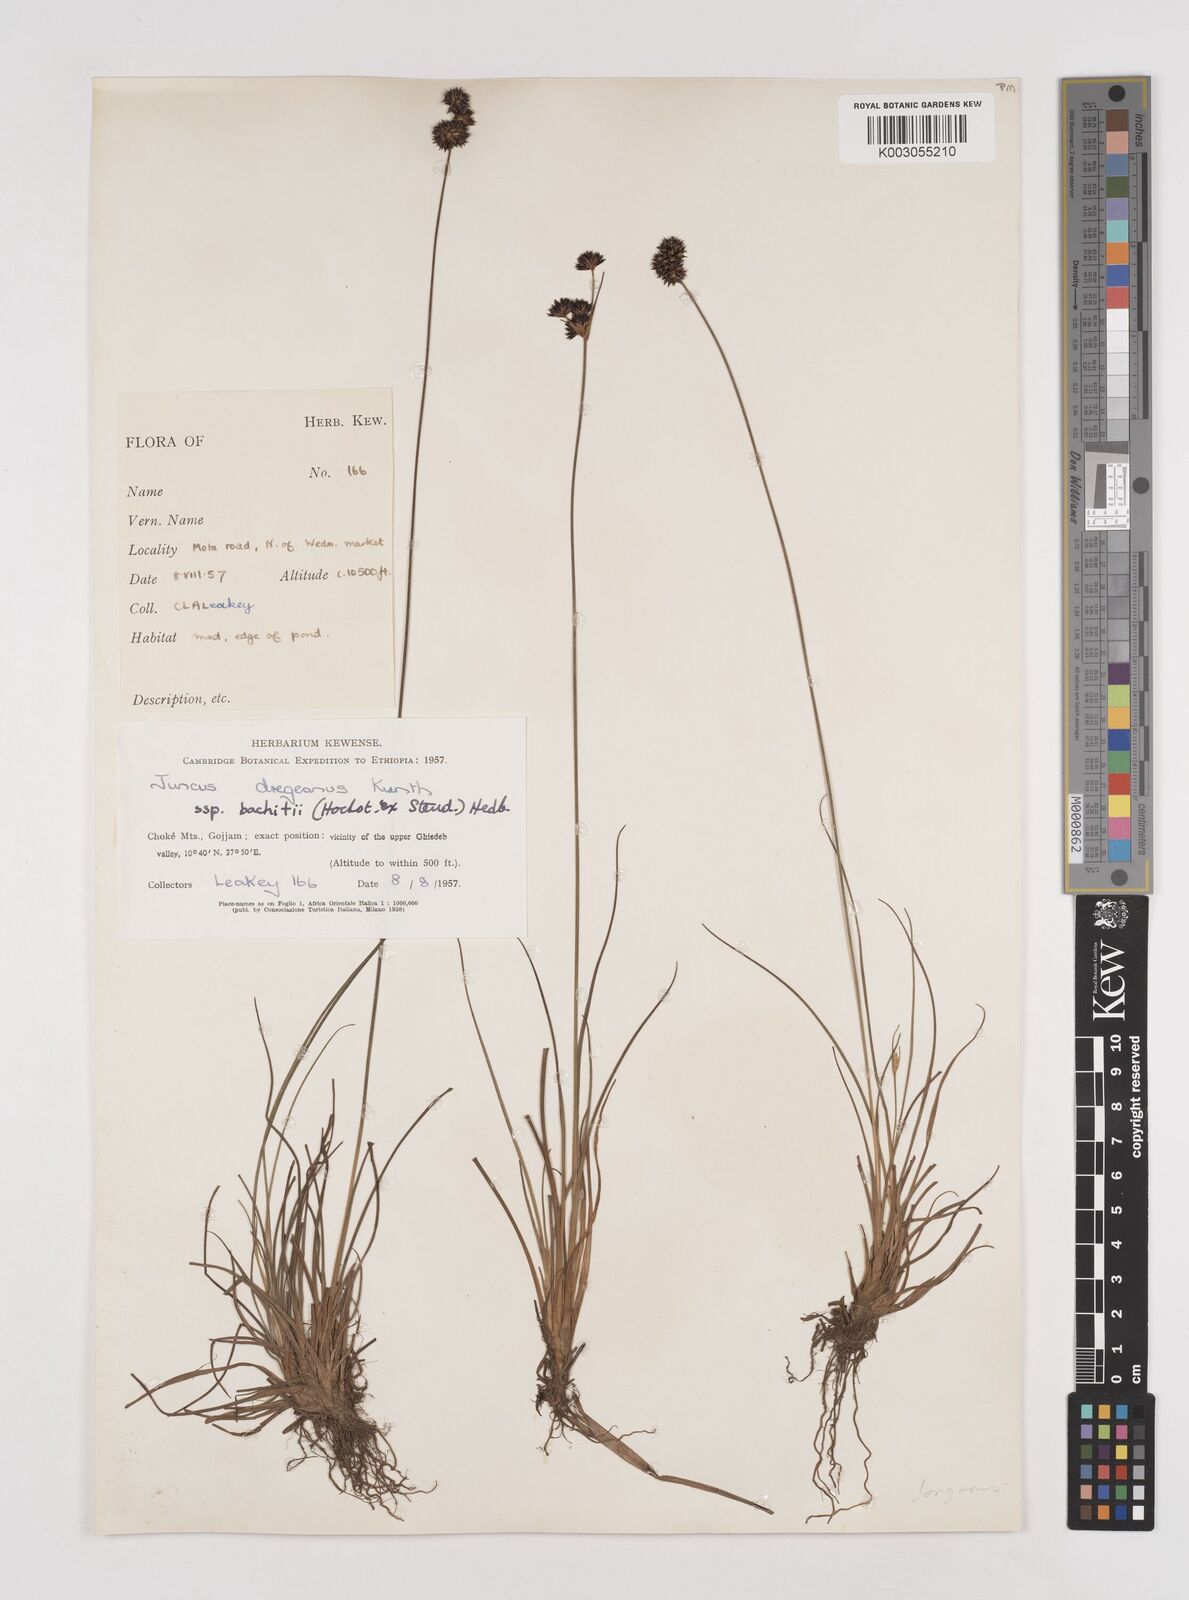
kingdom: Plantae
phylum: Tracheophyta
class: Liliopsida
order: Poales
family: Juncaceae
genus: Juncus
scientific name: Juncus dregeanus
